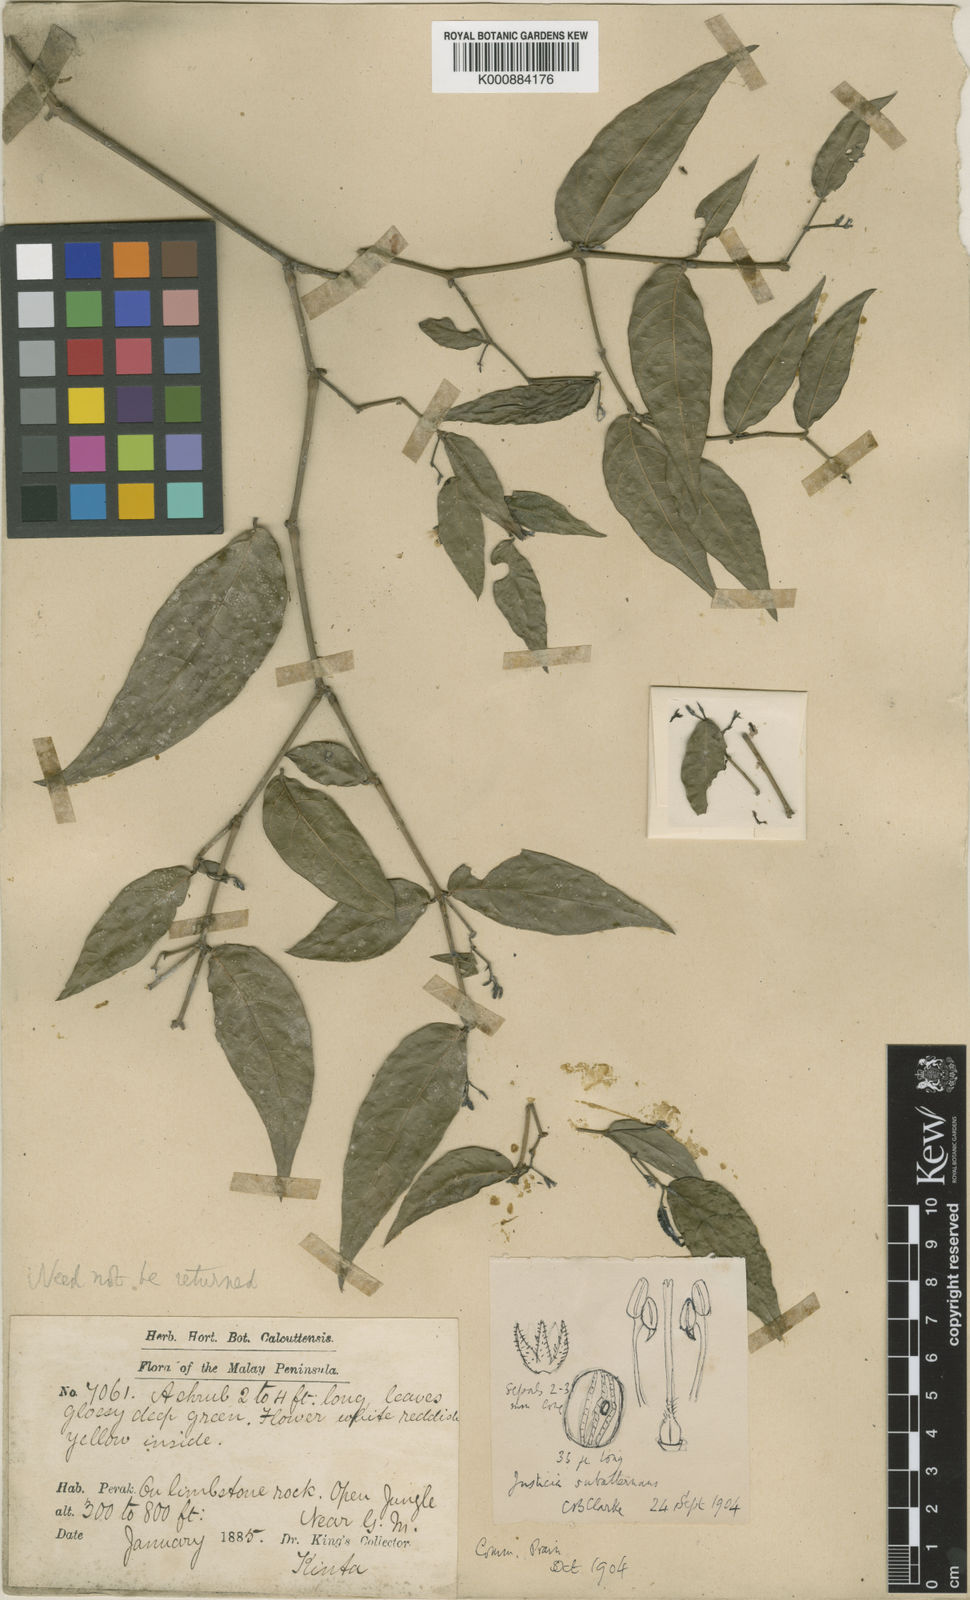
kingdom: Plantae
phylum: Tracheophyta
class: Magnoliopsida
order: Lamiales
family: Acanthaceae
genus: Justicia
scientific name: Justicia subalternans
